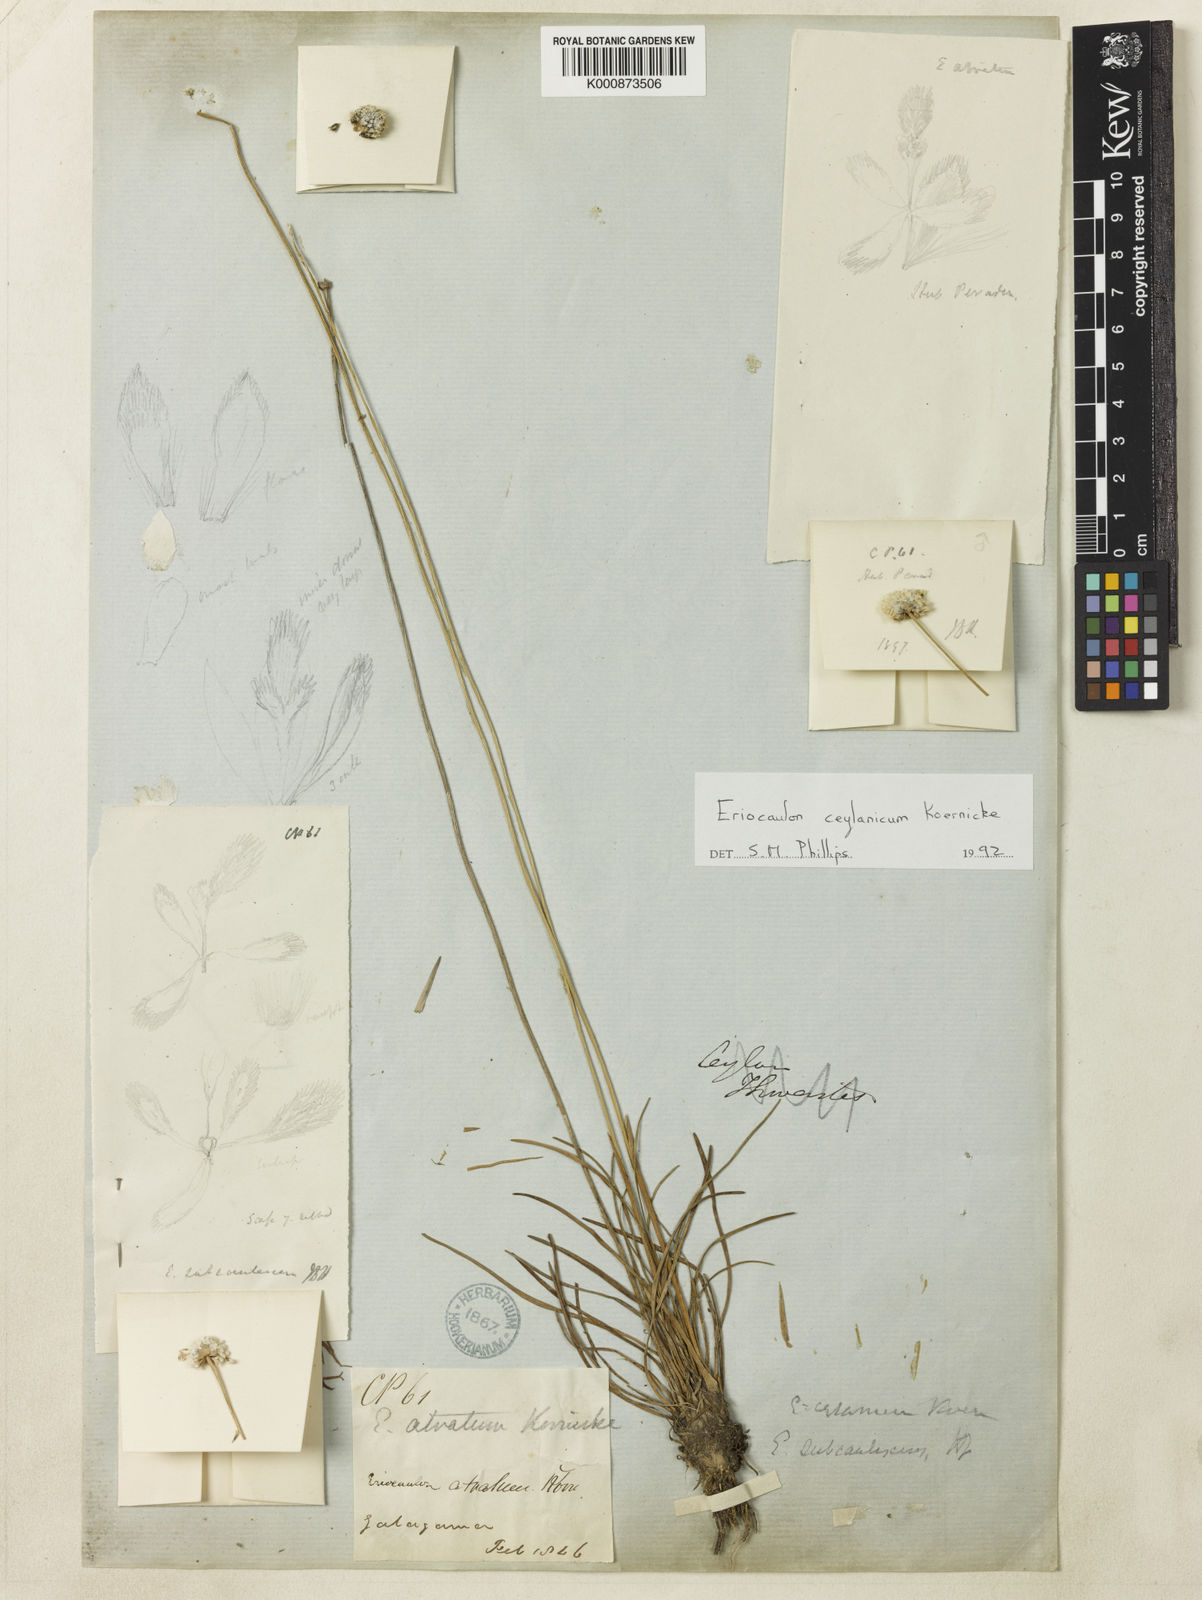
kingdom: Plantae
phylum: Tracheophyta
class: Liliopsida
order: Poales
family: Eriocaulaceae
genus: Eriocaulon
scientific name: Eriocaulon
